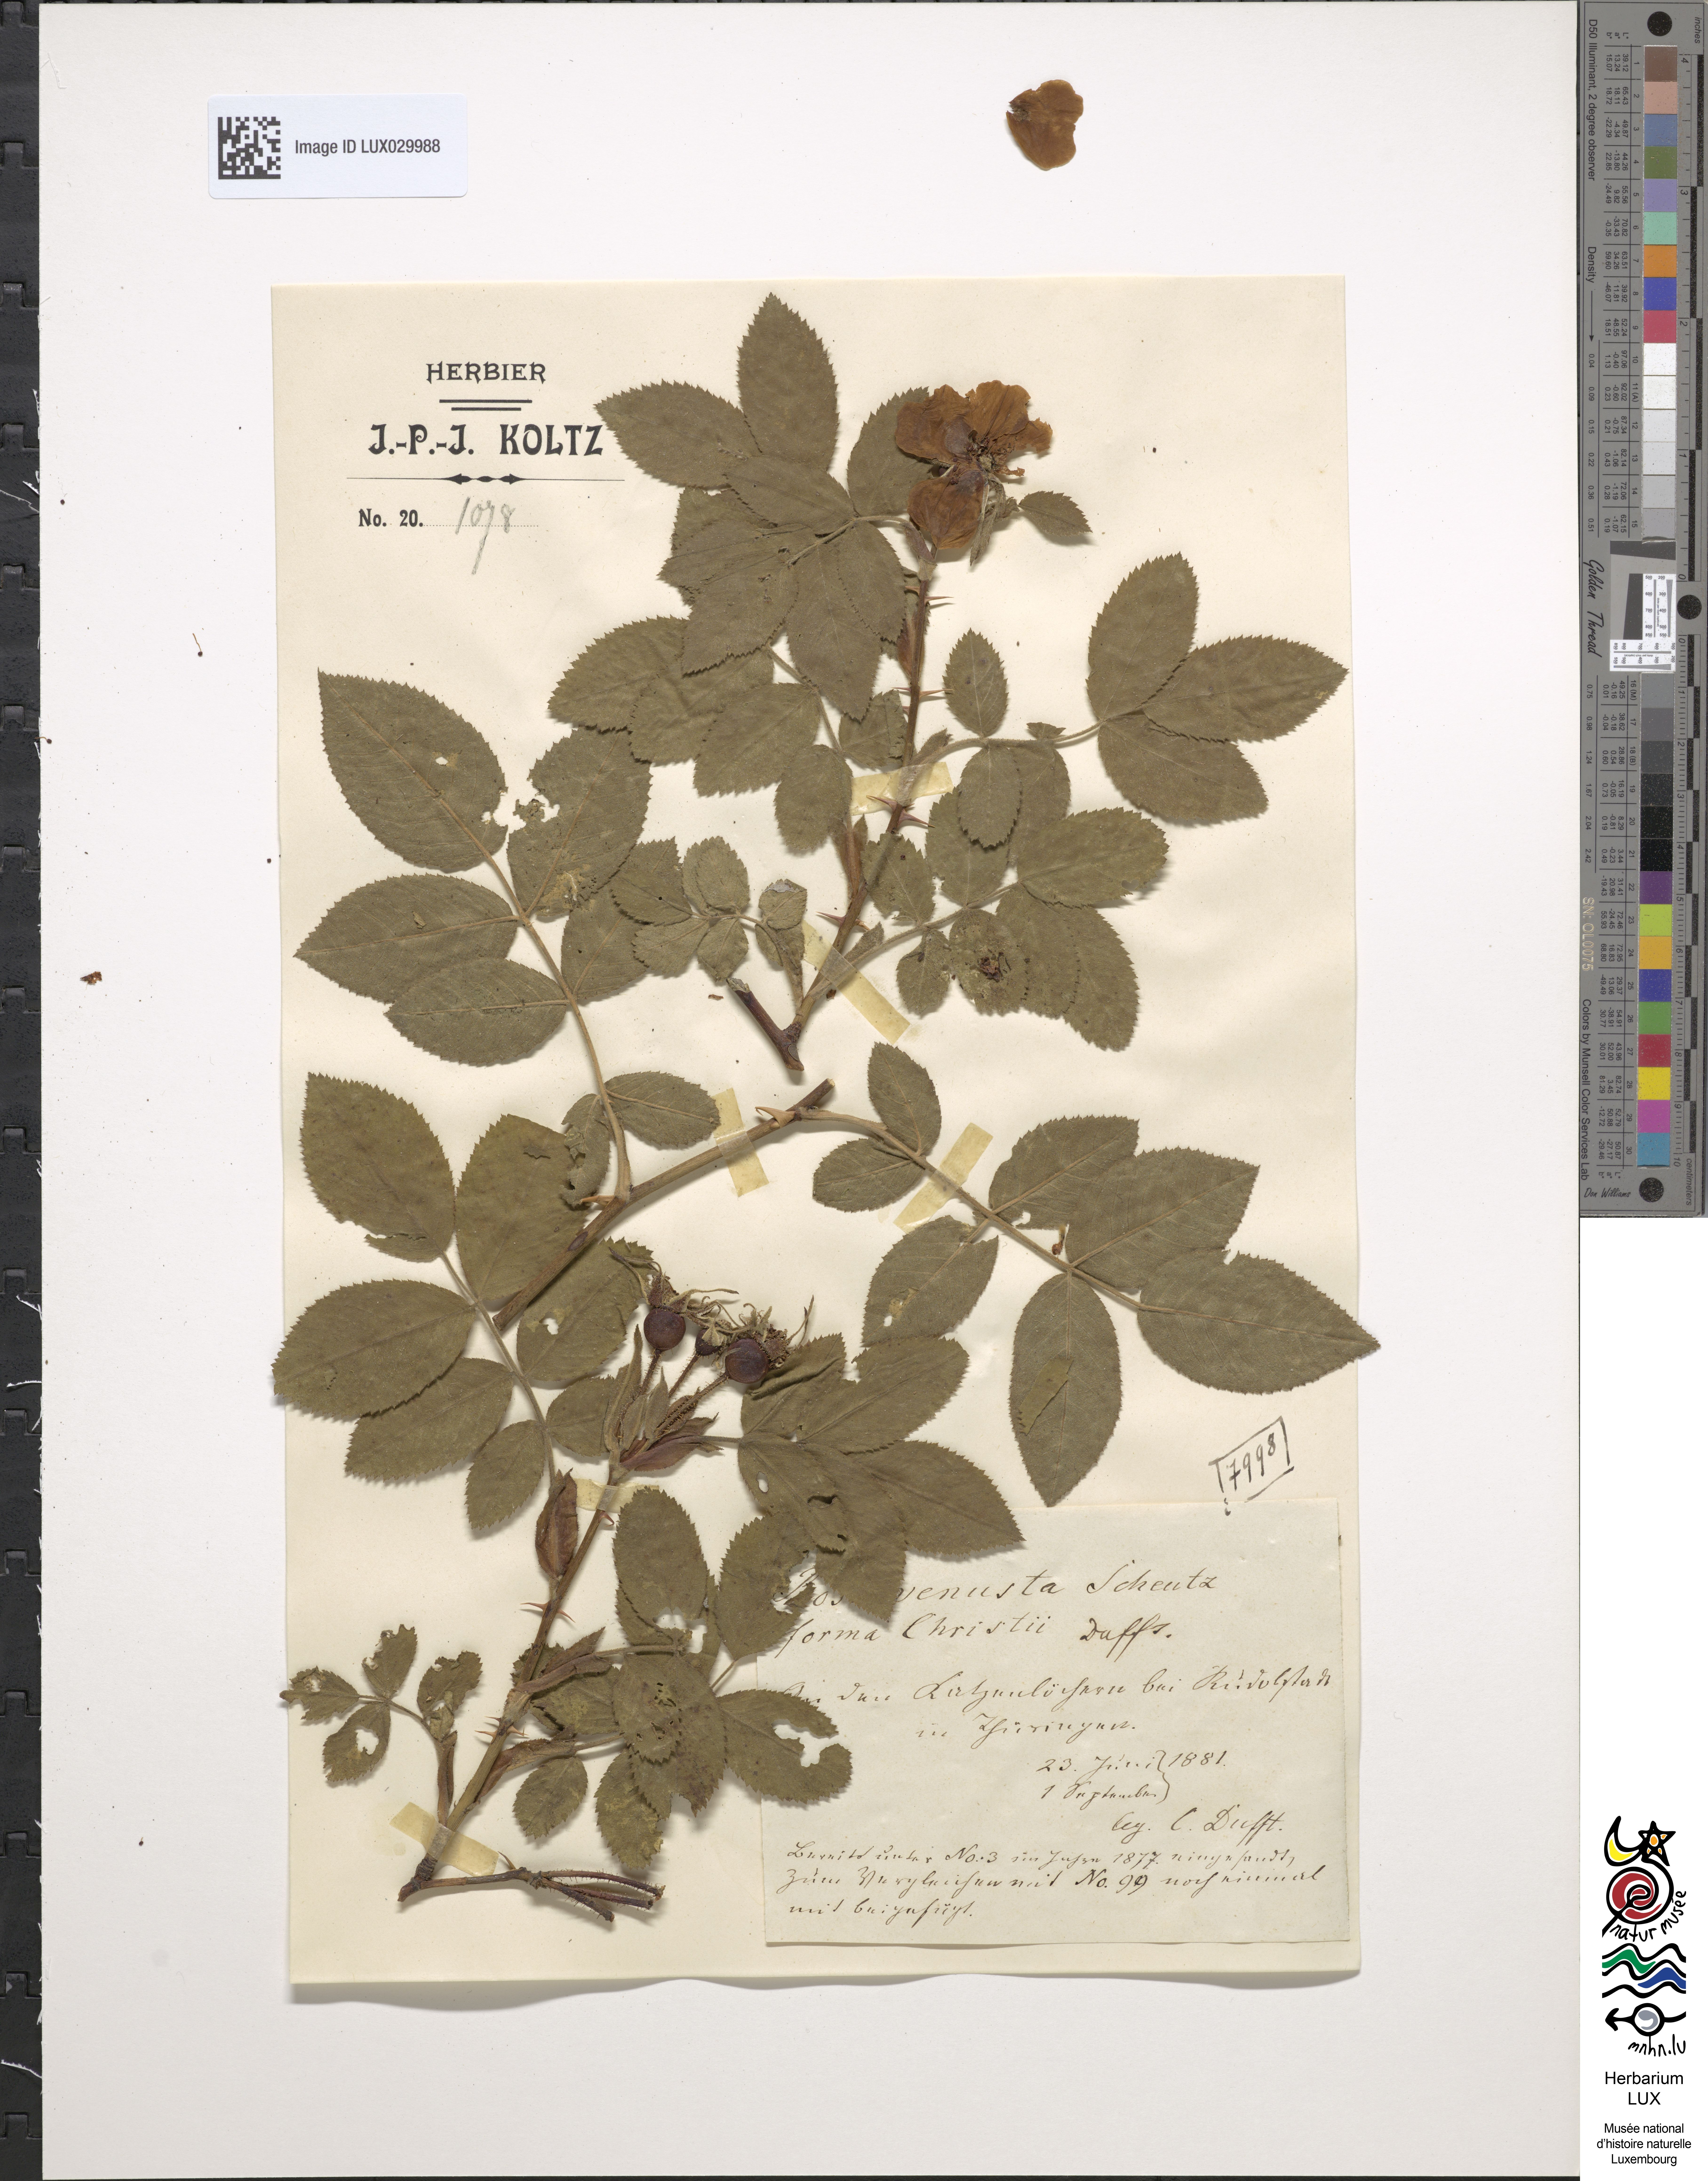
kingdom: Plantae
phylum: Tracheophyta
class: Magnoliopsida
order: Rosales
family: Rosaceae
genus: Rosa
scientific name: Rosa
